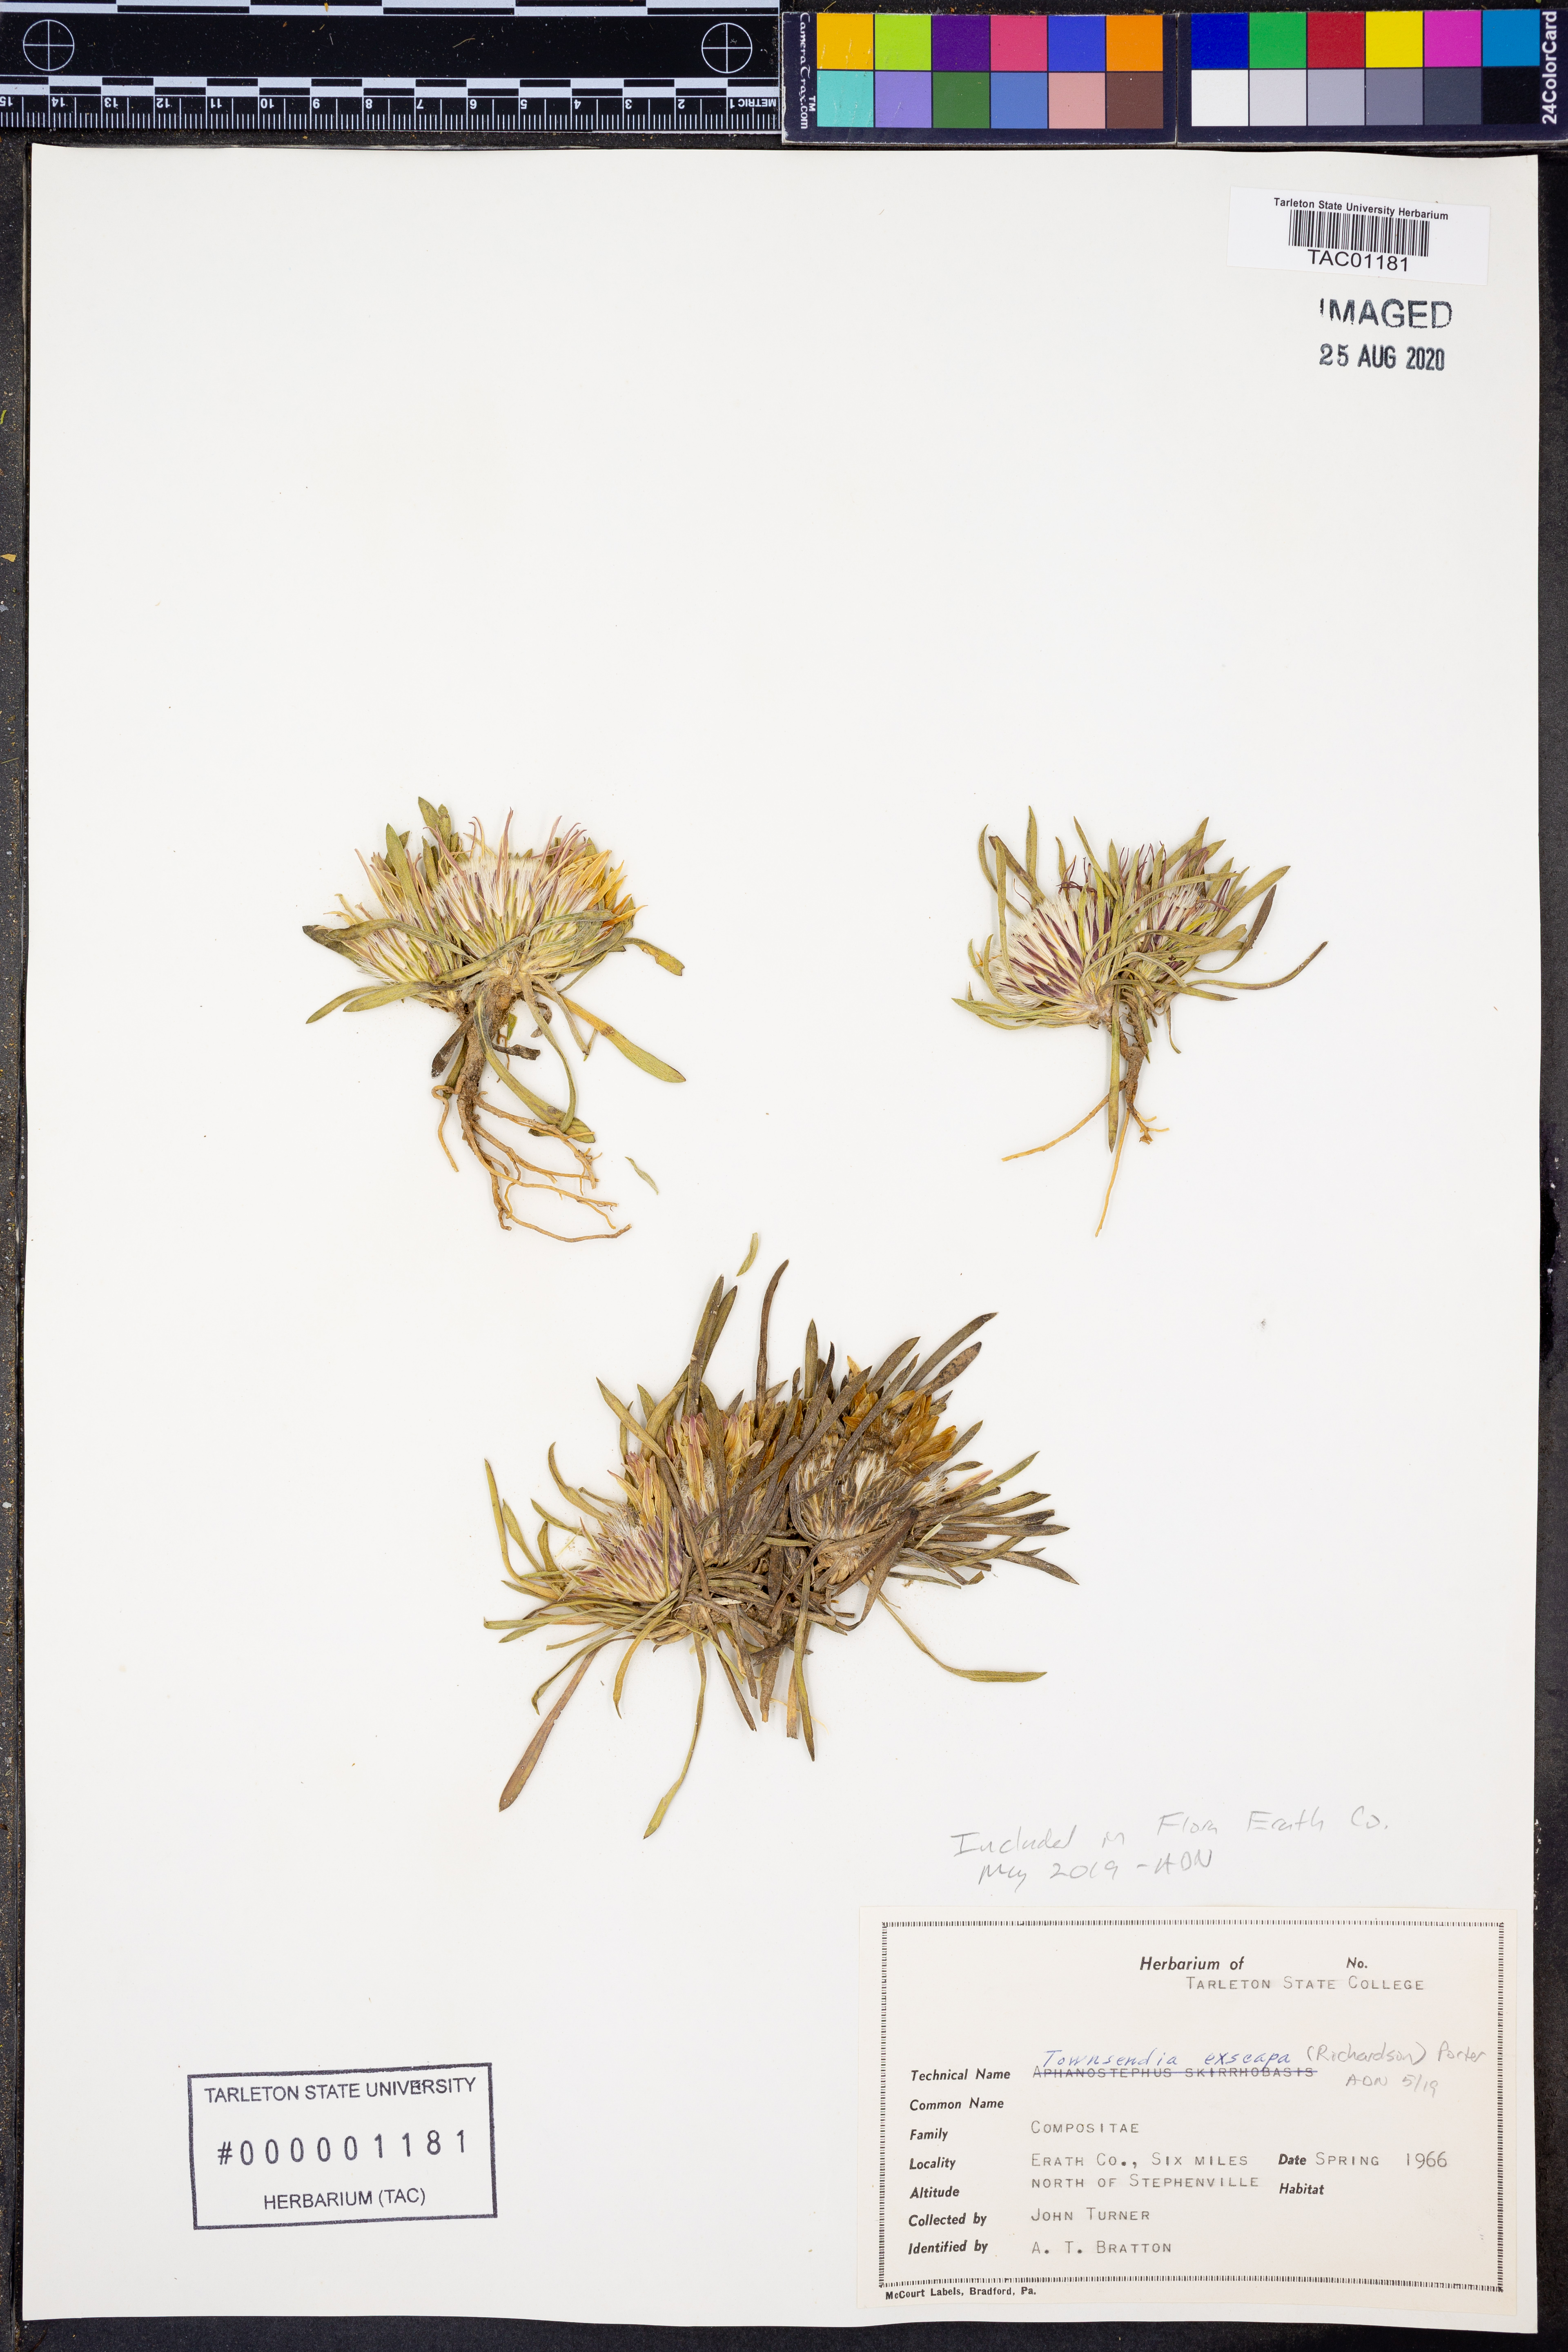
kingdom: Plantae
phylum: Tracheophyta
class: Magnoliopsida
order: Asterales
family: Asteraceae
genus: Townsendia
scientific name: Townsendia exscapa
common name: Dwarf townsendia
